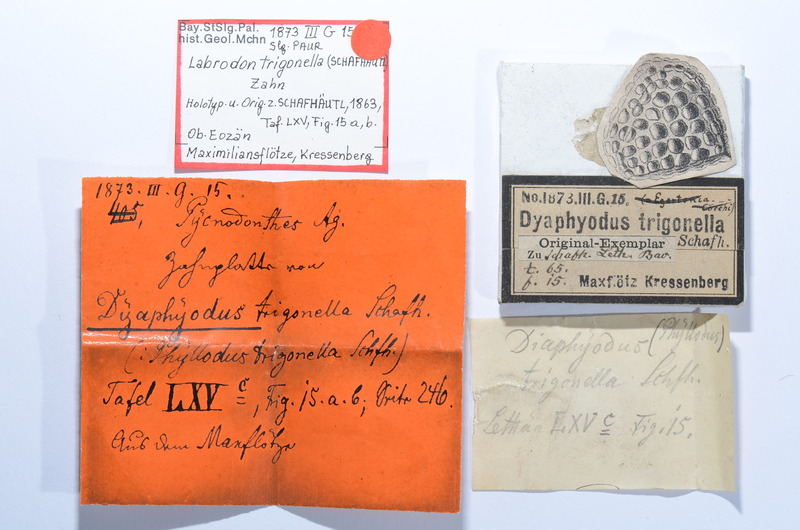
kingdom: Animalia
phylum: Chordata
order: Perciformes
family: Labridae
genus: Labrodon
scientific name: Labrodon
